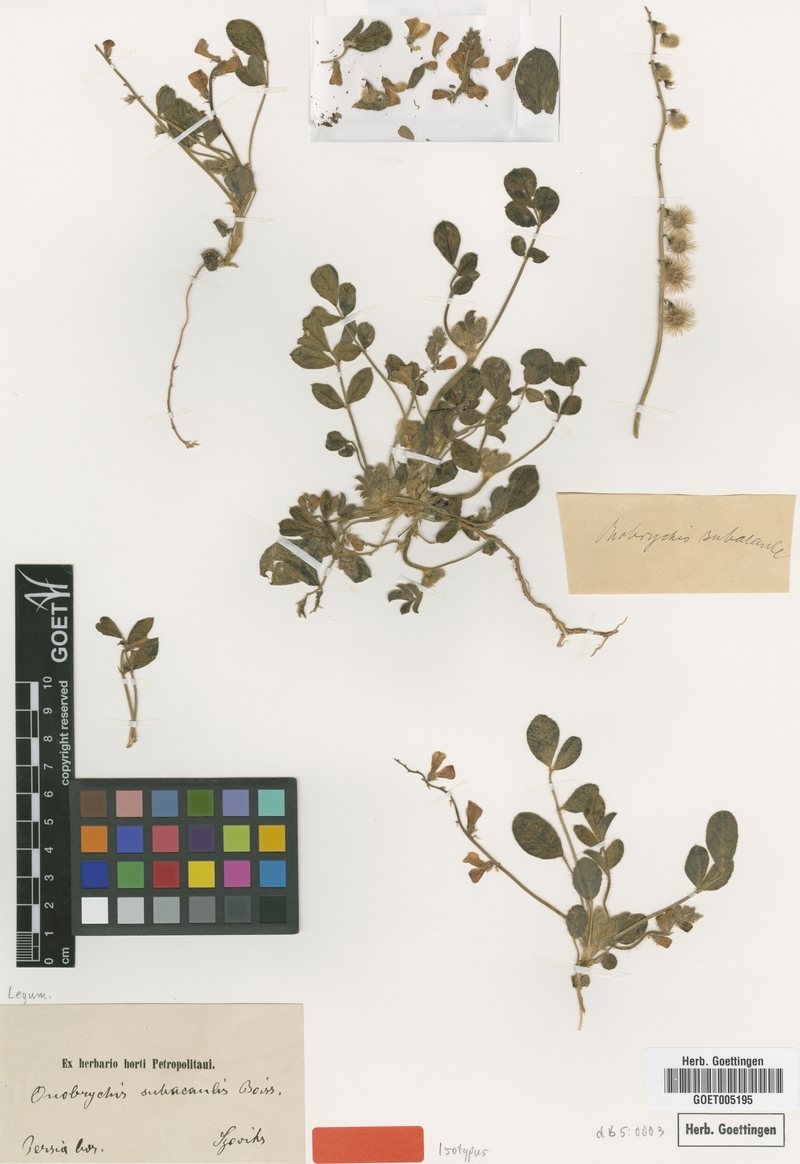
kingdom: Plantae
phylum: Tracheophyta
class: Magnoliopsida
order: Fabales
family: Fabaceae
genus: Onobrychis
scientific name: Onobrychis subacaulis
